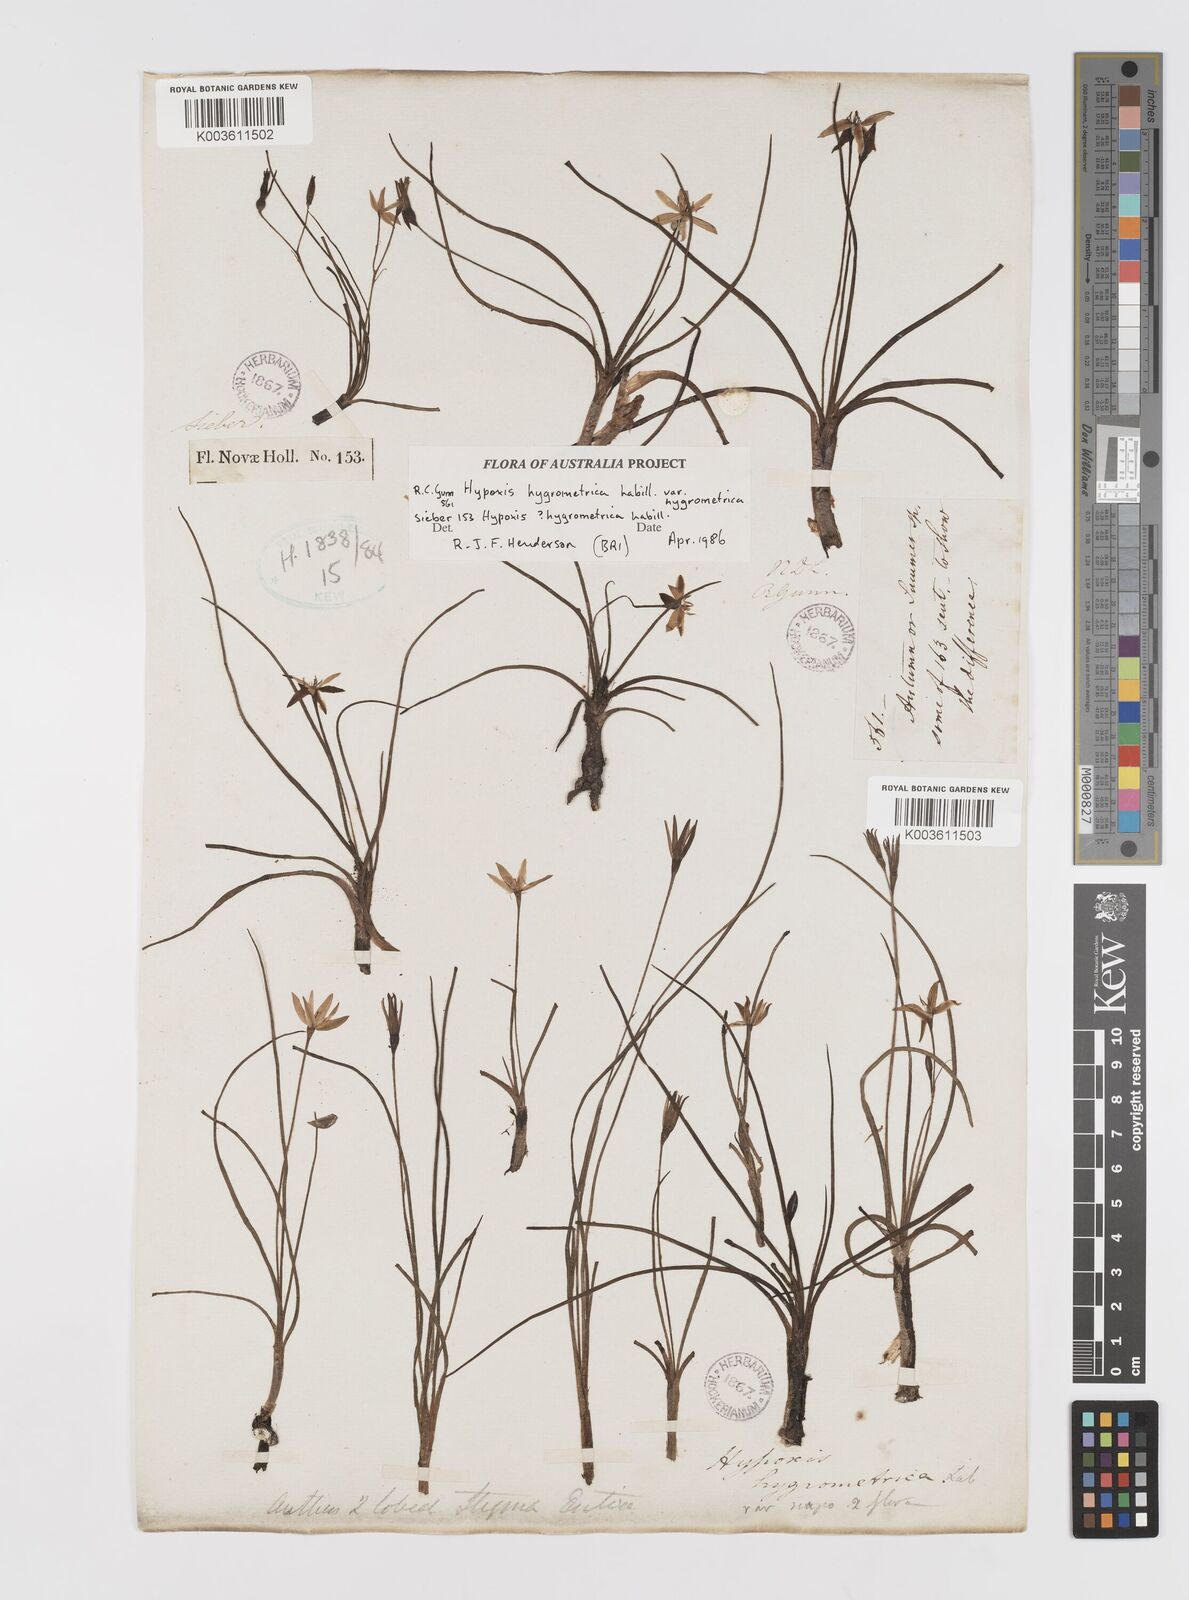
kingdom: Plantae
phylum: Tracheophyta
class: Liliopsida
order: Asparagales
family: Hypoxidaceae
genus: Hypoxis
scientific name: Hypoxis hygrometrica
